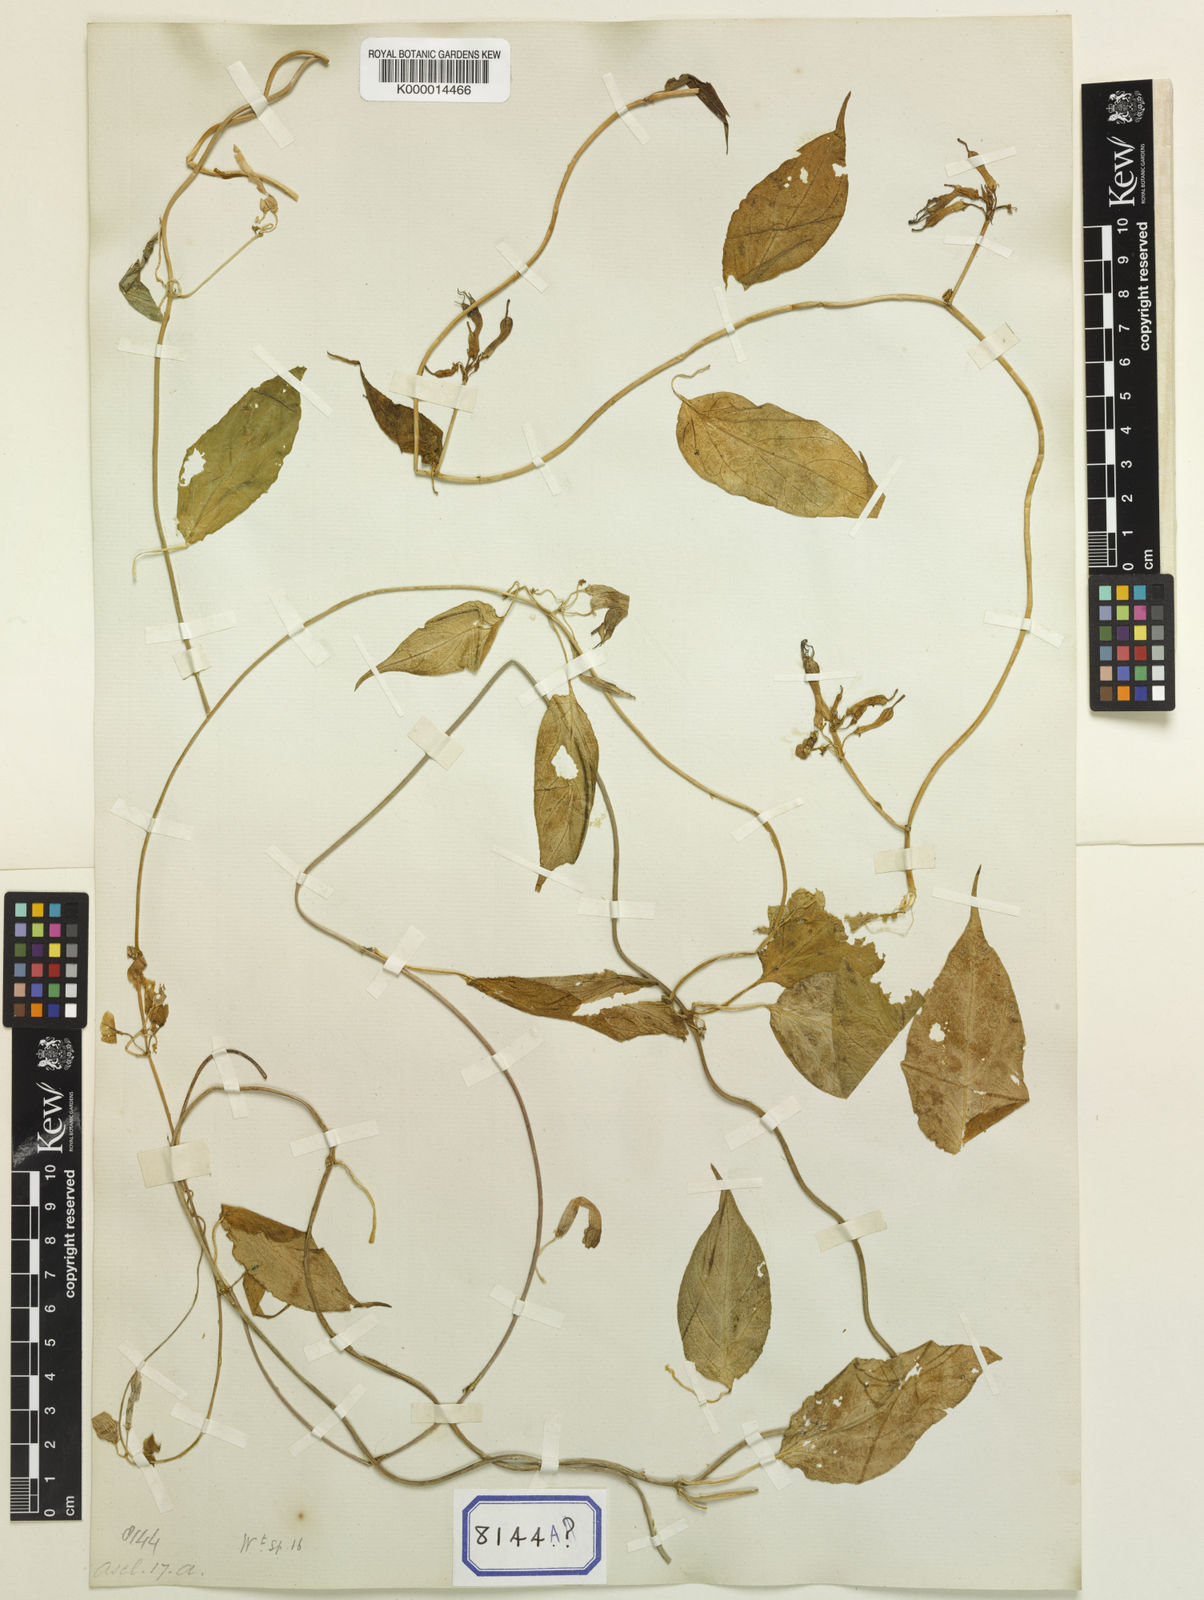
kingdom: Plantae
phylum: Tracheophyta
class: Magnoliopsida
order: Gentianales
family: Apocynaceae
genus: Ceropegia
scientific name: Ceropegia pubescens
